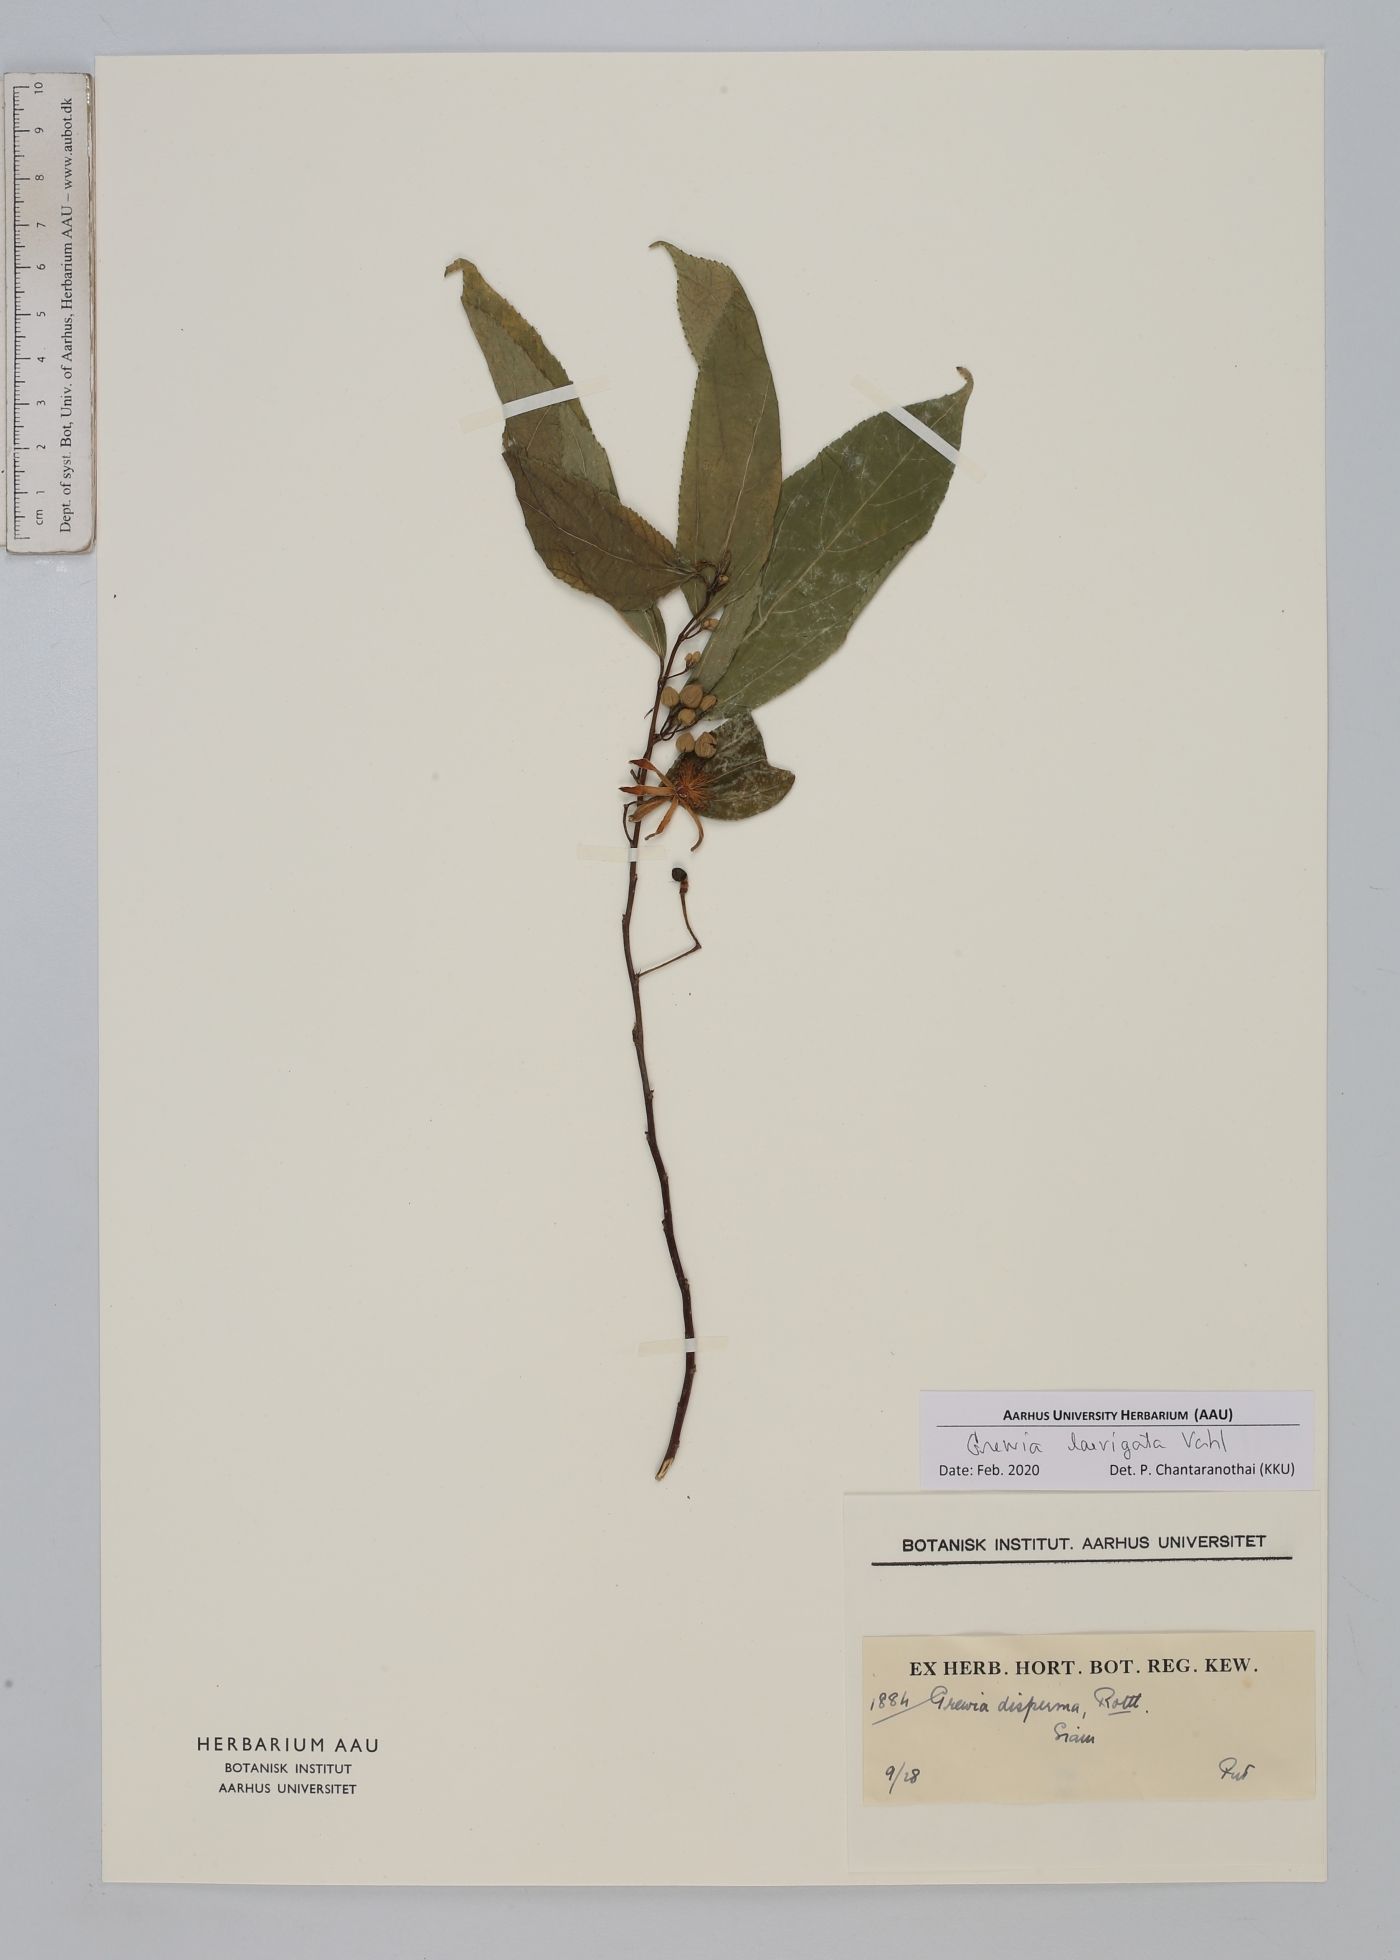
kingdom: Plantae
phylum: Tracheophyta
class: Magnoliopsida
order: Malvales
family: Malvaceae
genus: Grewia
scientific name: Grewia laevigata
